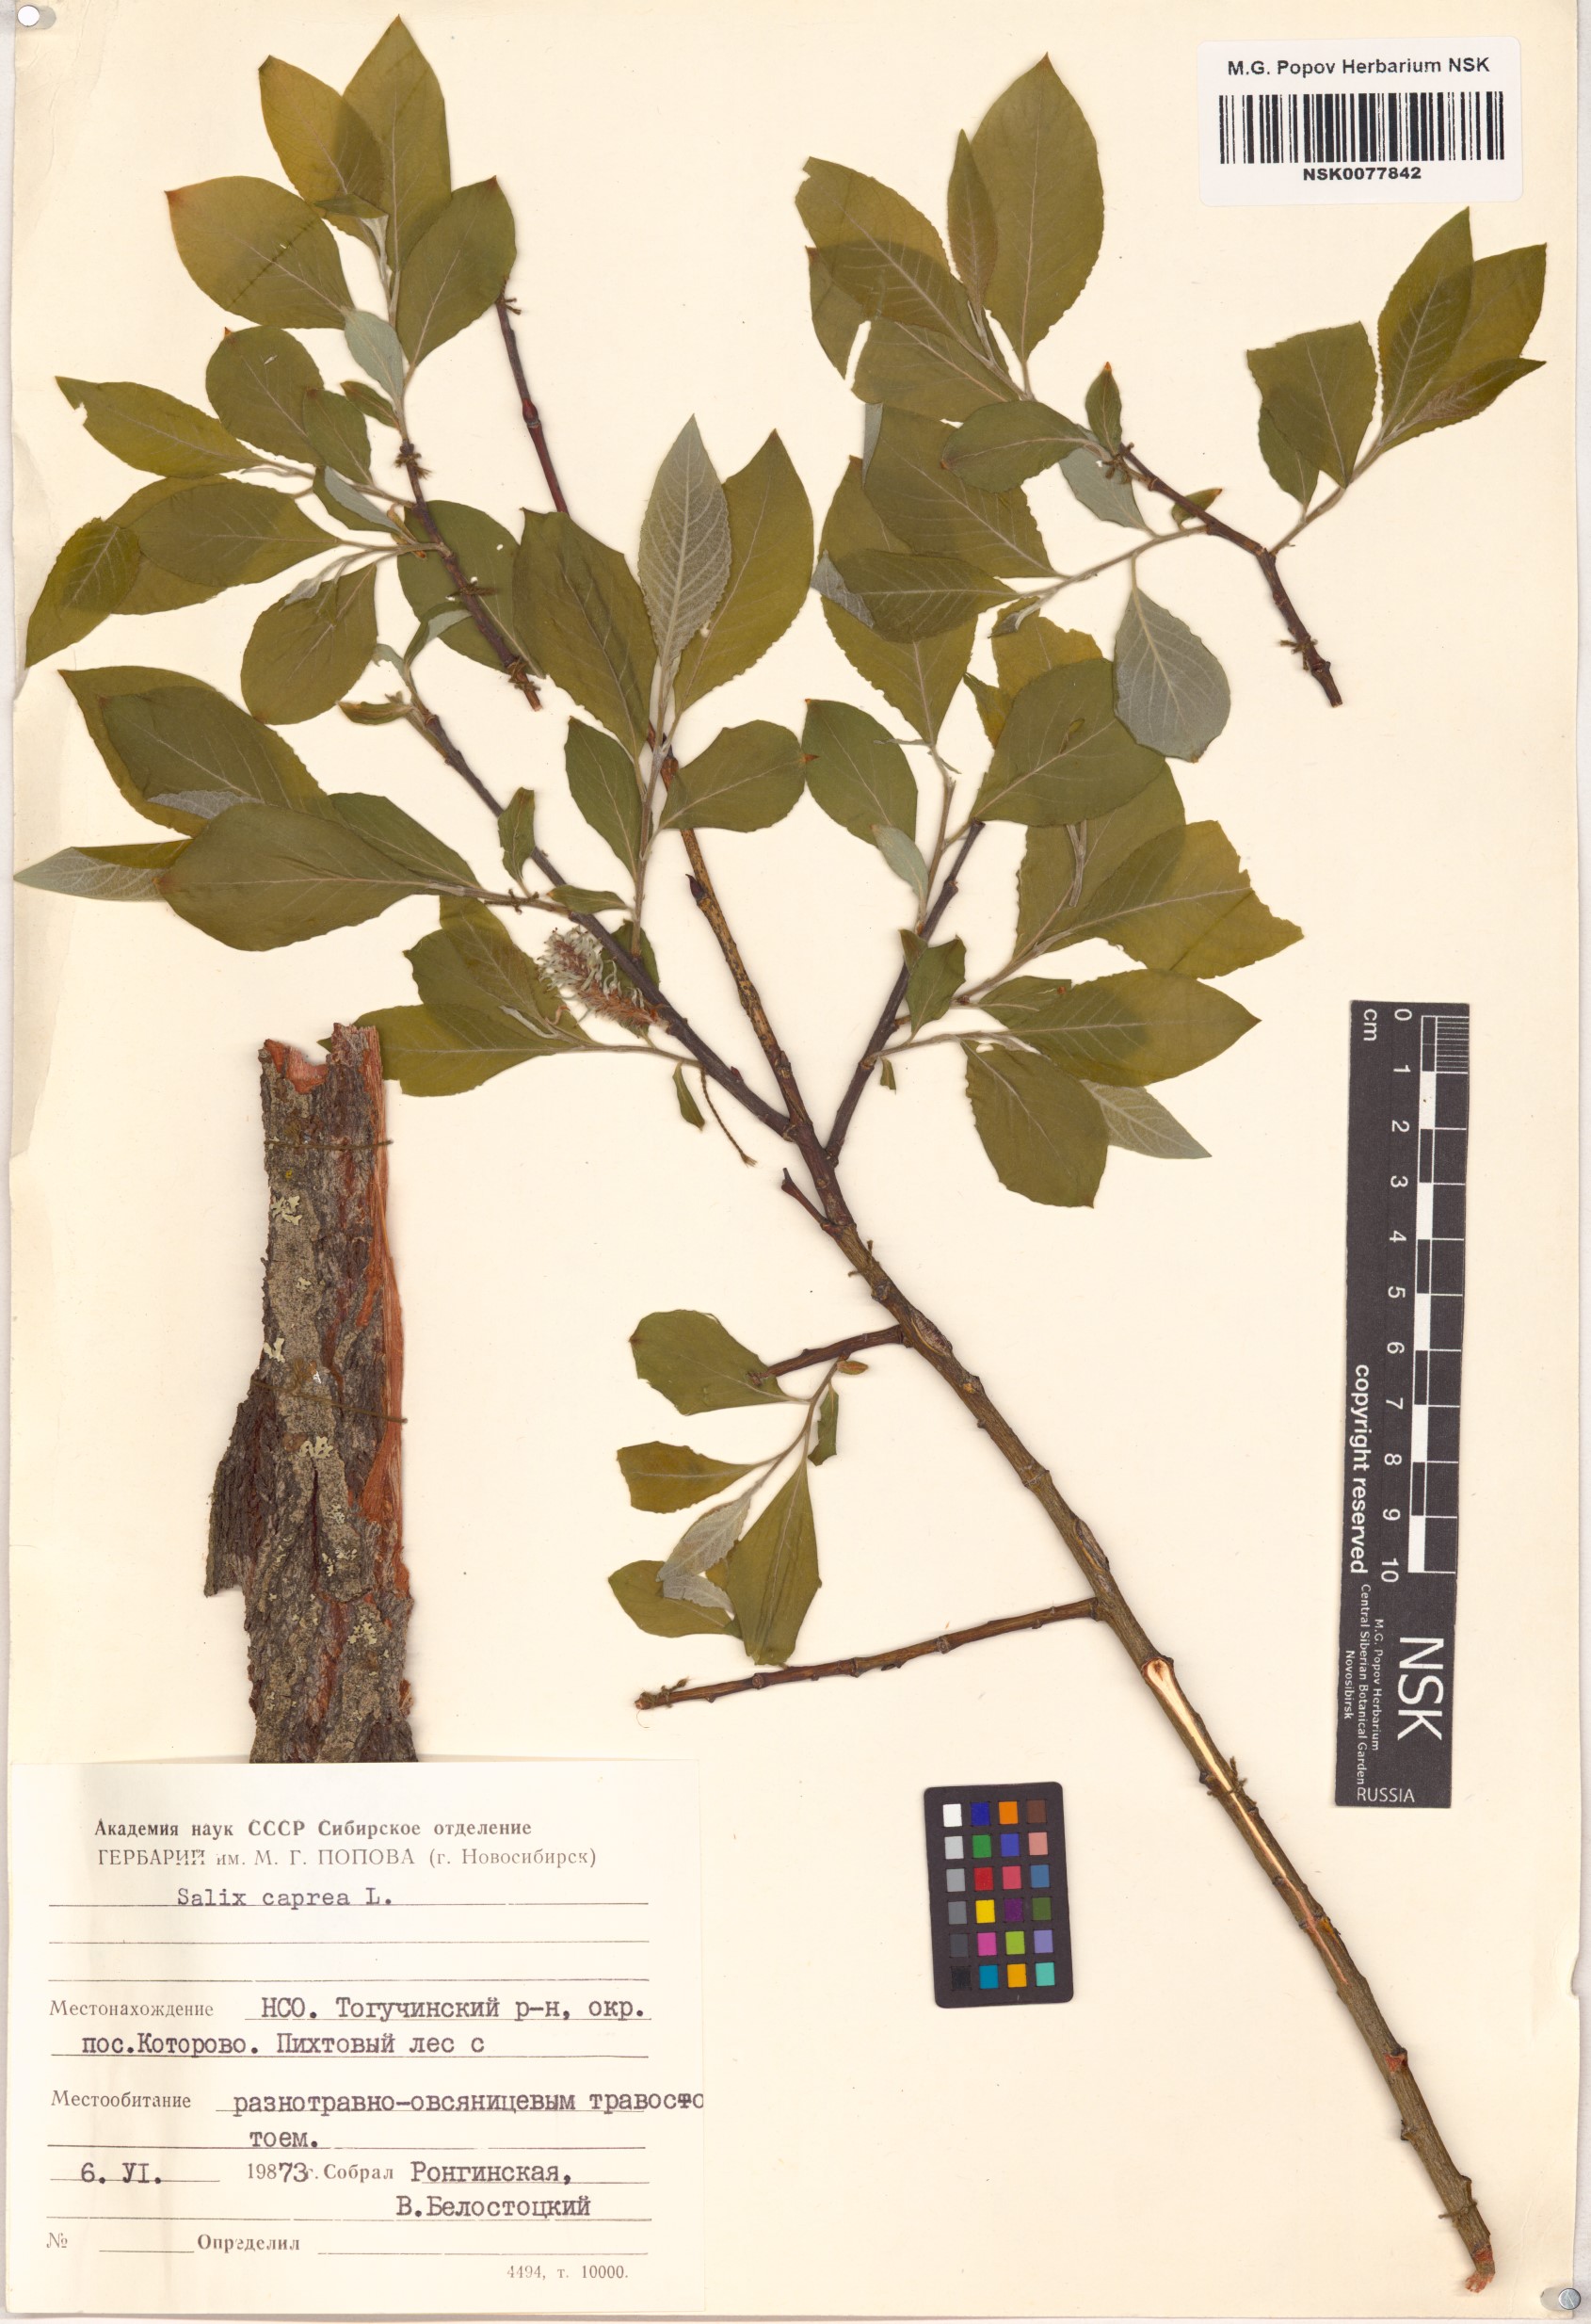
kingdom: Plantae
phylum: Tracheophyta
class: Magnoliopsida
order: Malpighiales
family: Salicaceae
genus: Salix
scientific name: Salix caprea
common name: Goat willow
